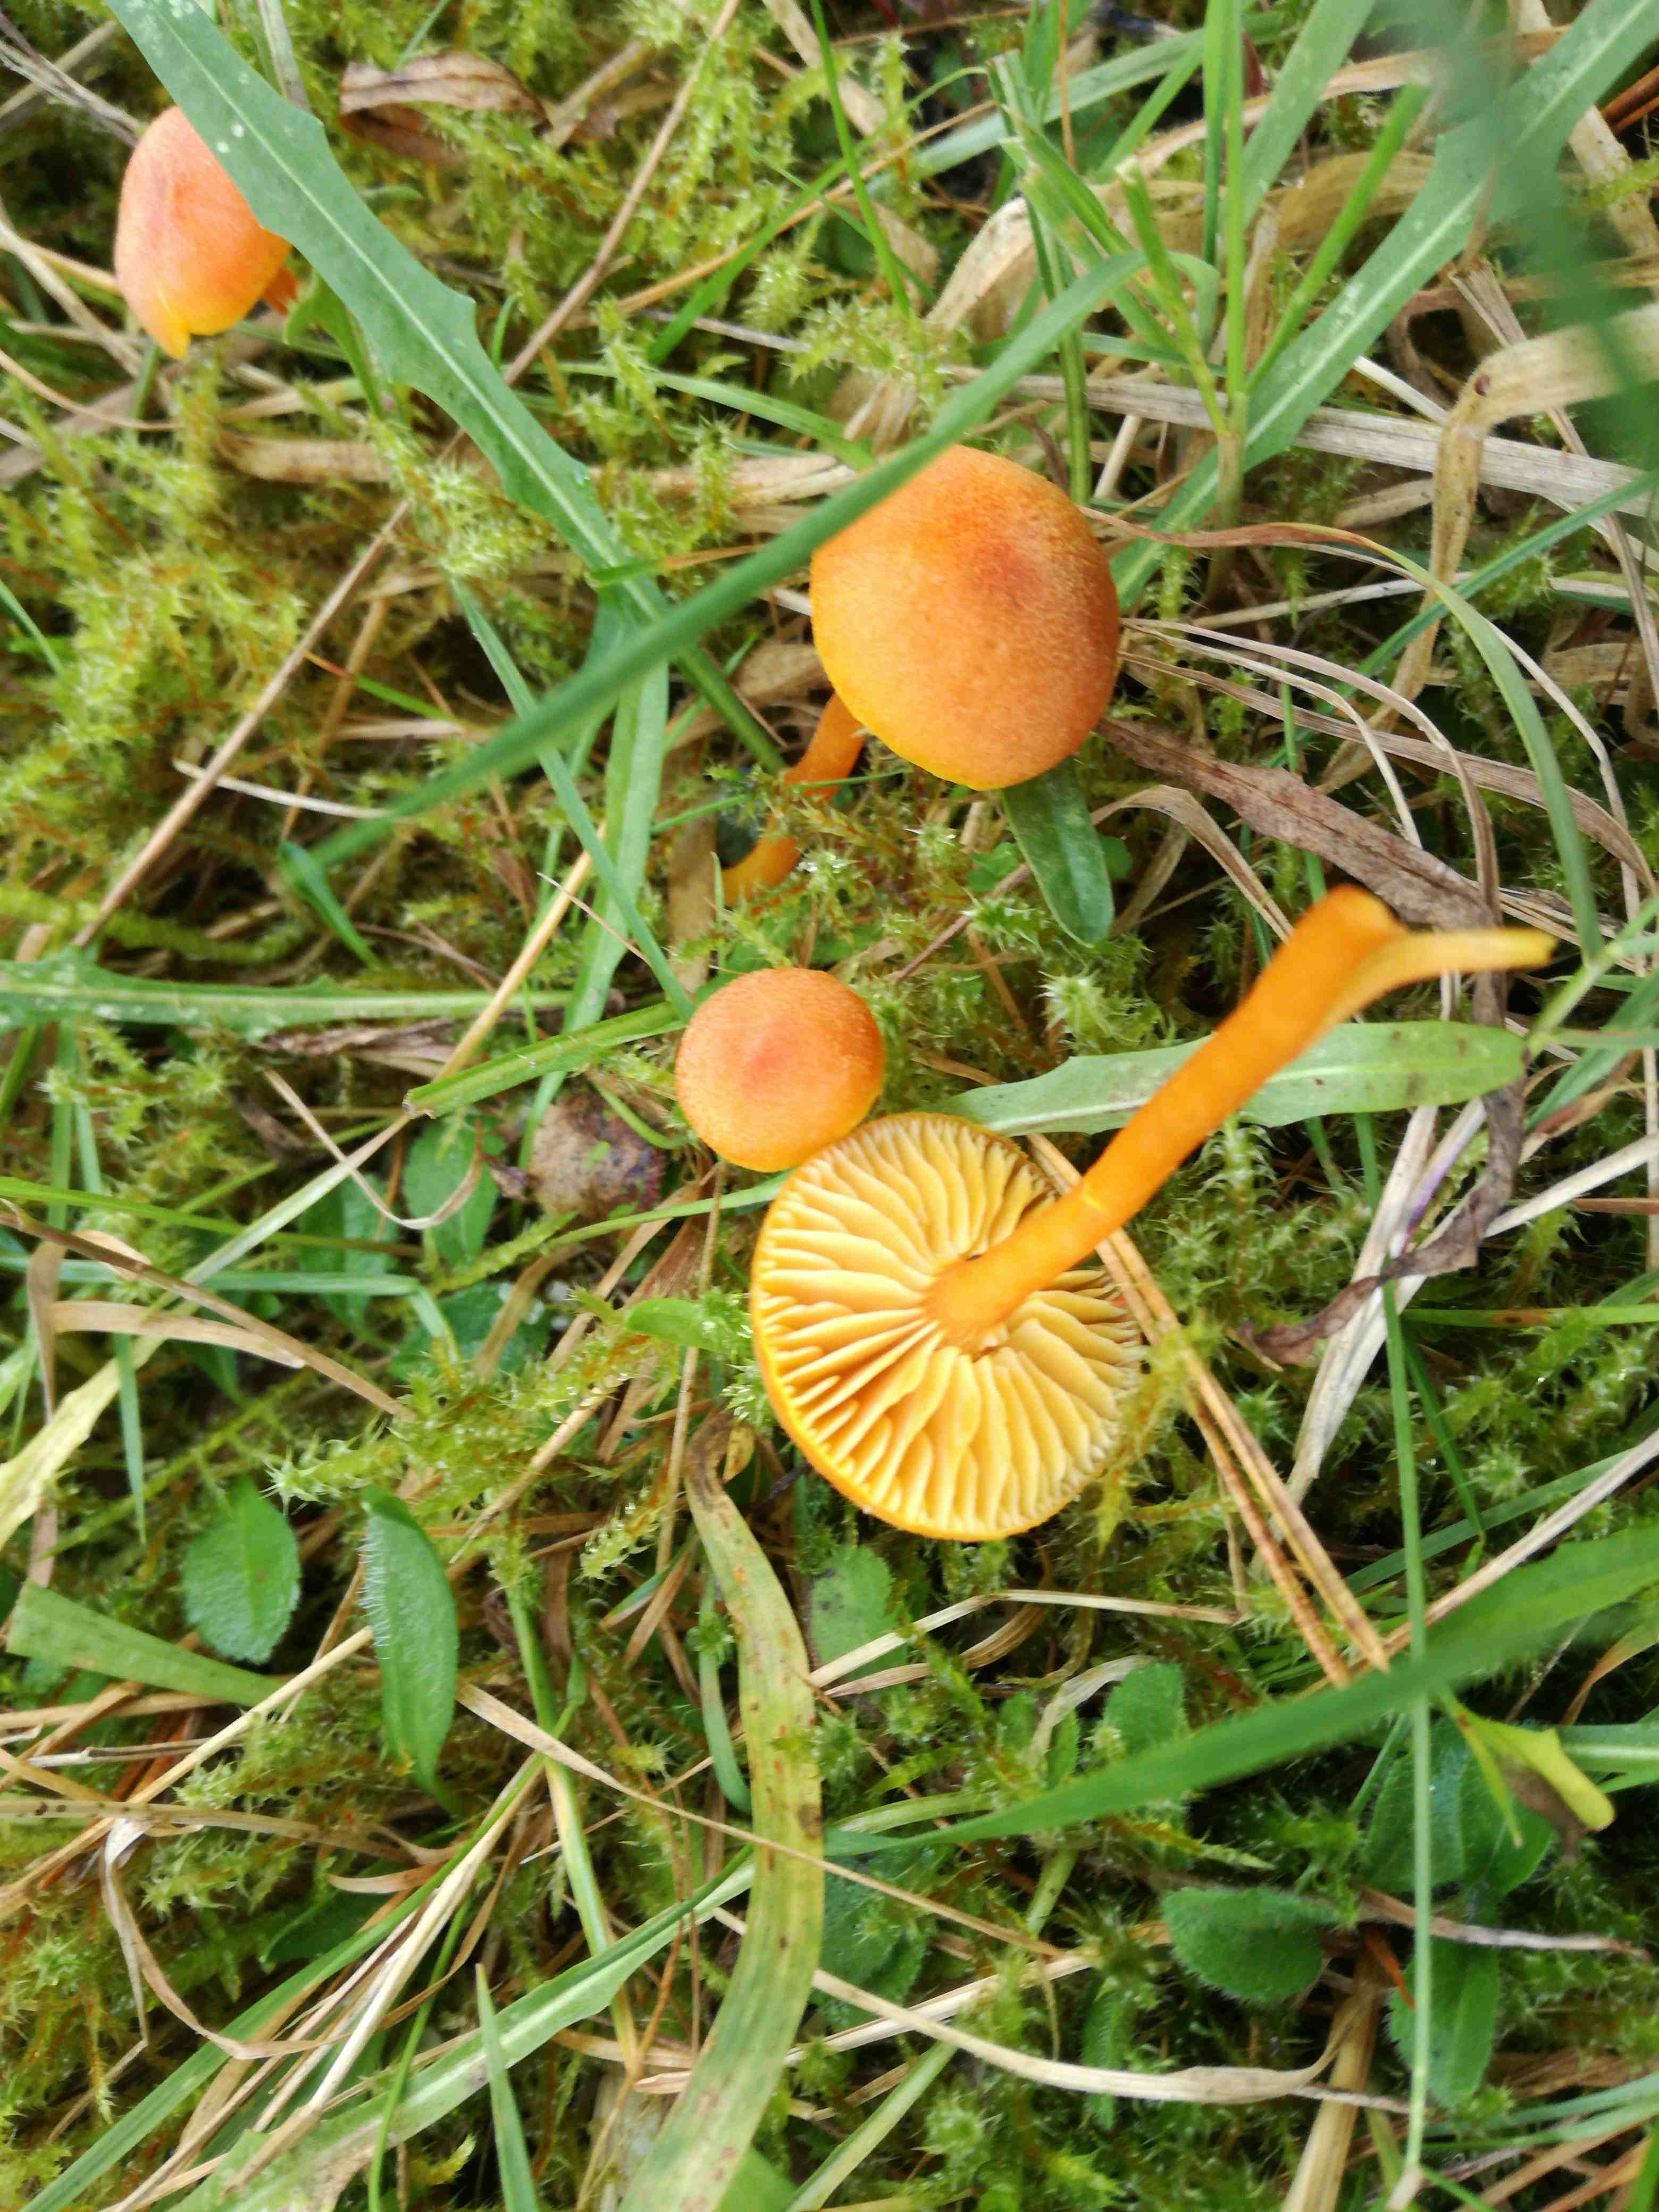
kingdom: Fungi
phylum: Basidiomycota
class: Agaricomycetes
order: Agaricales
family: Hygrophoraceae
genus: Hygrocybe
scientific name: Hygrocybe miniata
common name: mønje-vokshat
